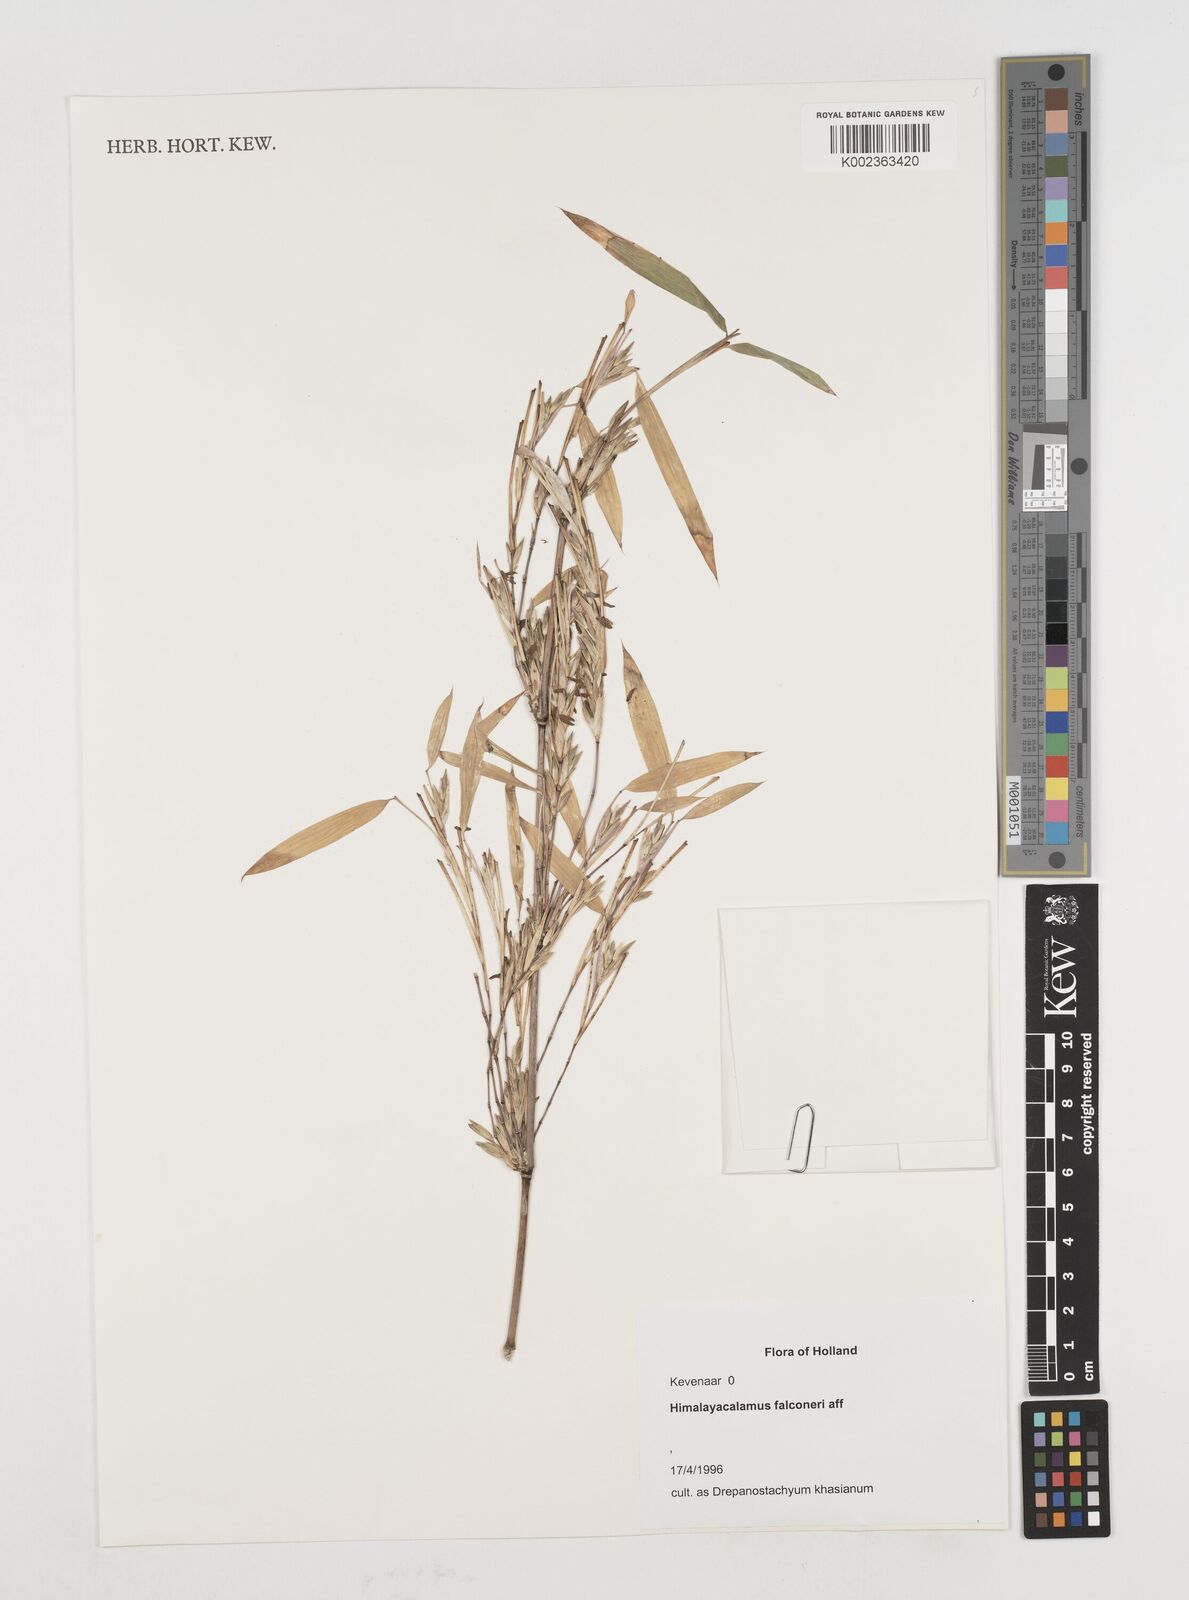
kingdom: Plantae
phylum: Tracheophyta
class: Liliopsida
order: Poales
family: Poaceae
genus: Himalayacalamus
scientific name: Himalayacalamus falconeri
